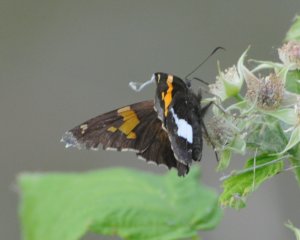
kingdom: Animalia
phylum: Arthropoda
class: Insecta
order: Lepidoptera
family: Hesperiidae
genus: Epargyreus
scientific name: Epargyreus clarus
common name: Silver-spotted Skipper
